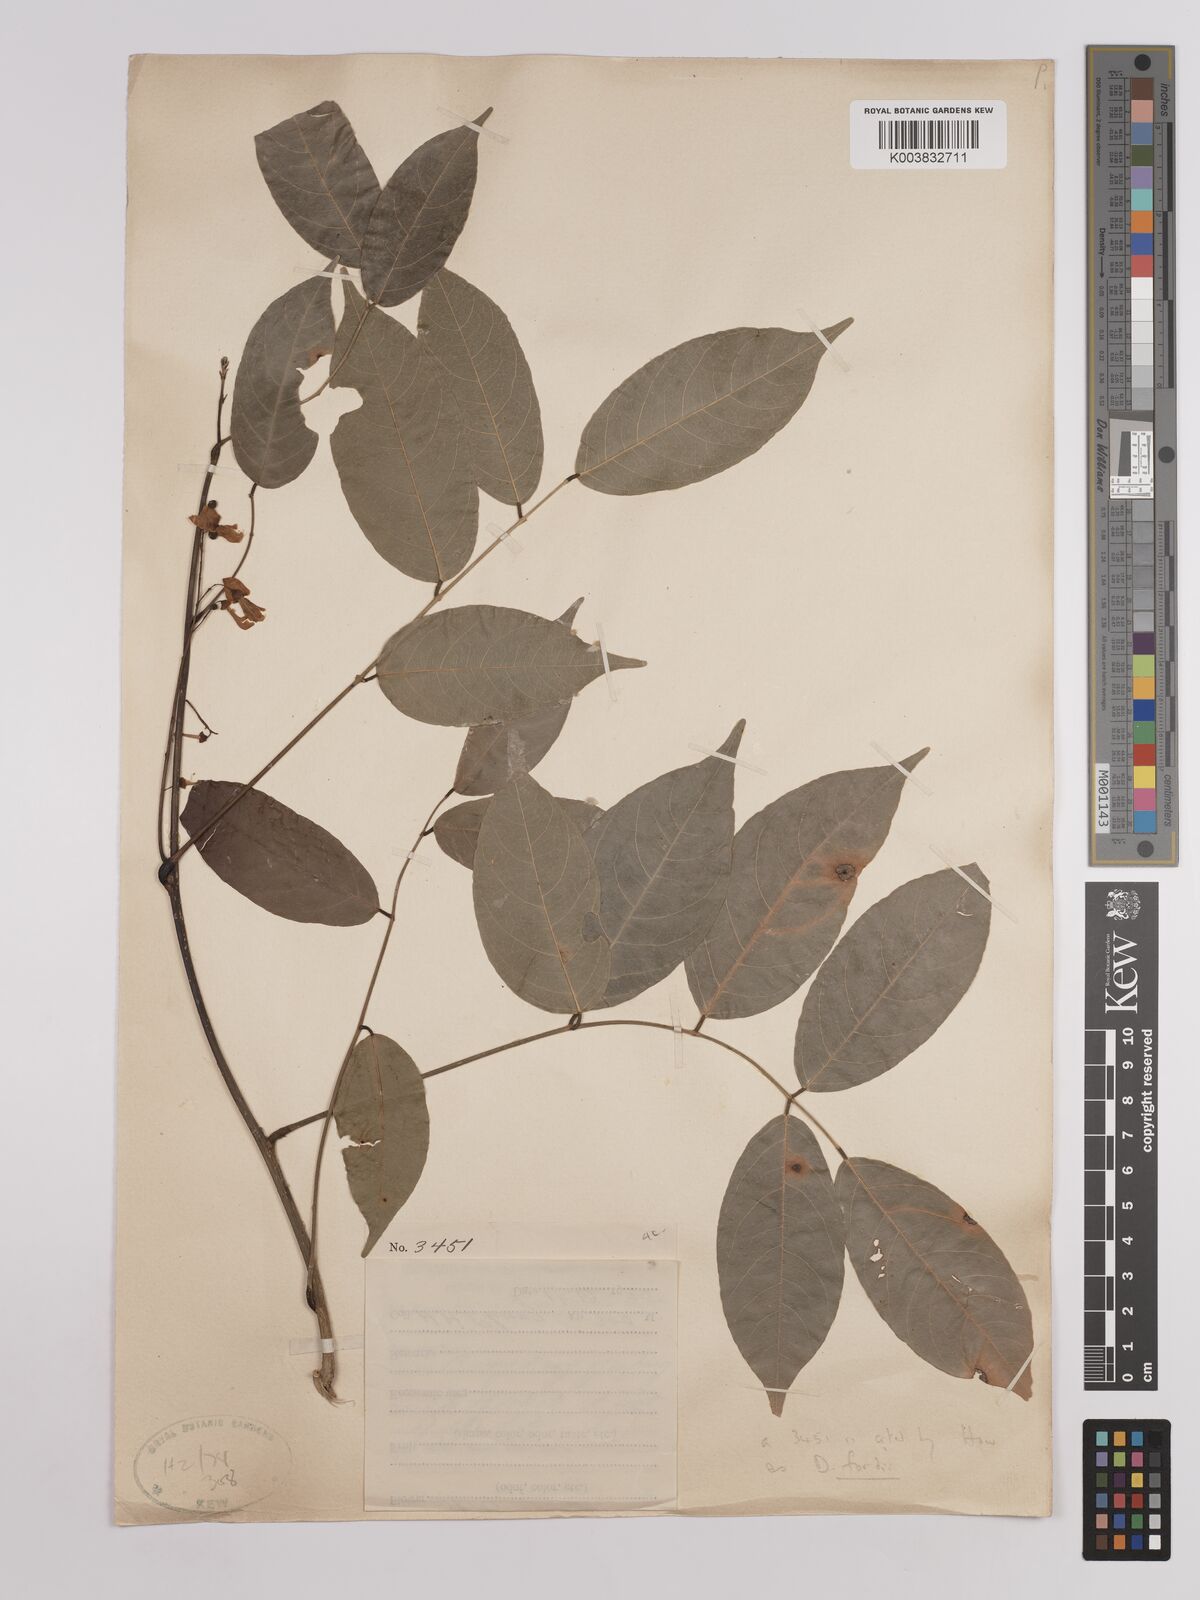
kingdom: Plantae
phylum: Tracheophyta
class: Magnoliopsida
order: Fabales
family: Fabaceae
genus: Derris
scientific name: Derris fordii
